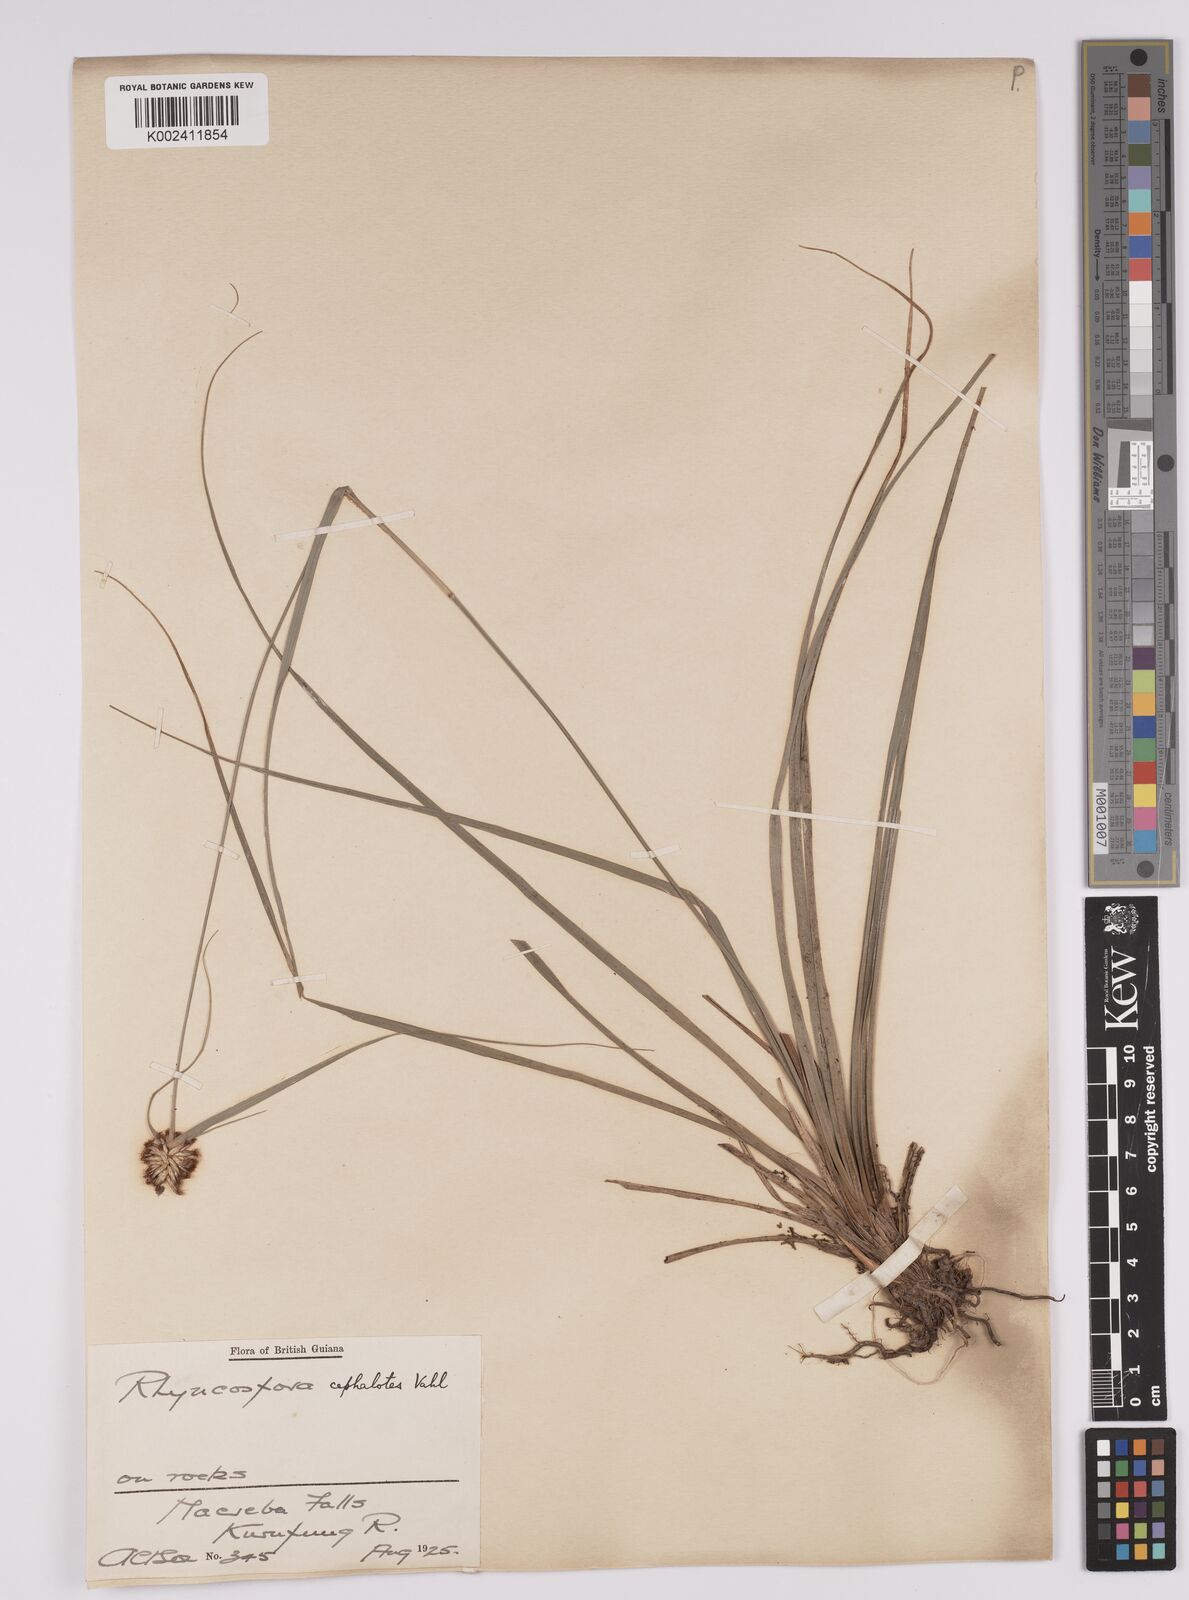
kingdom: Plantae
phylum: Tracheophyta
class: Liliopsida
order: Poales
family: Cyperaceae
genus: Rhynchospora
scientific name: Rhynchospora cephalotes
